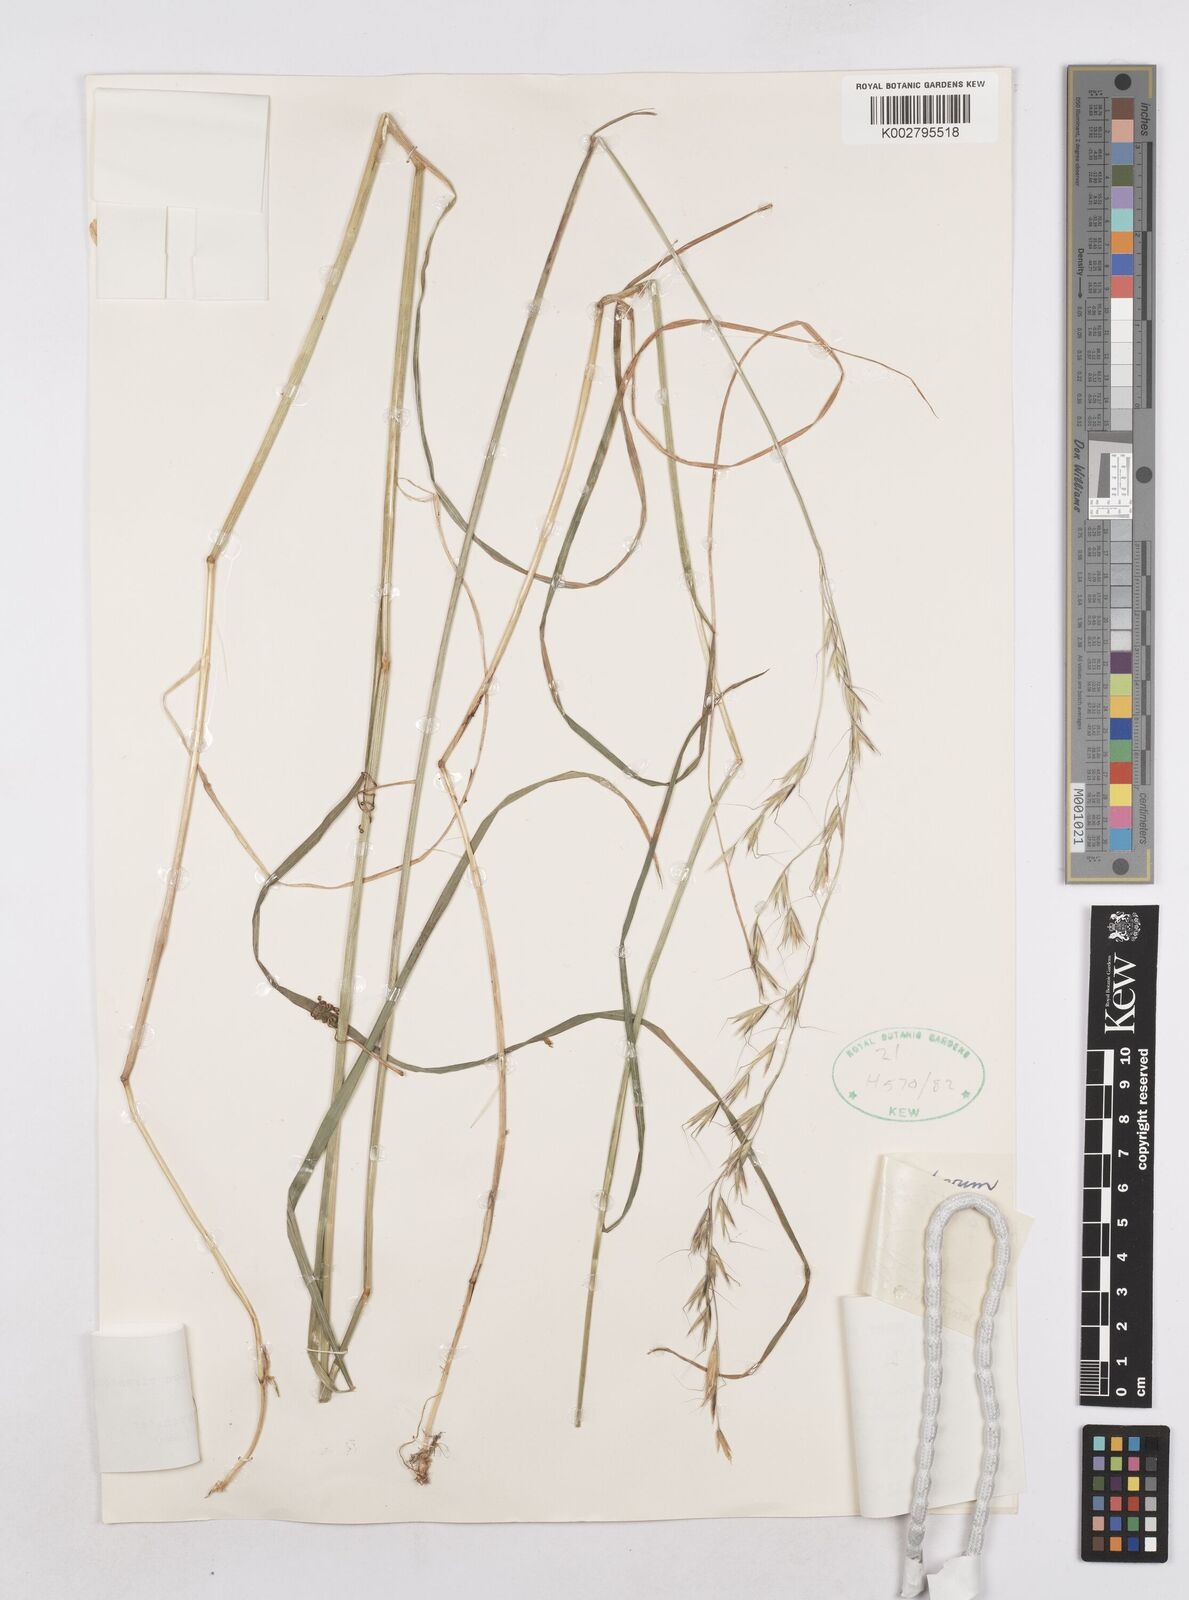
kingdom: Plantae
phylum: Tracheophyta
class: Liliopsida
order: Poales
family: Poaceae
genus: Trisetopsis
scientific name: Trisetopsis junghuhnii
